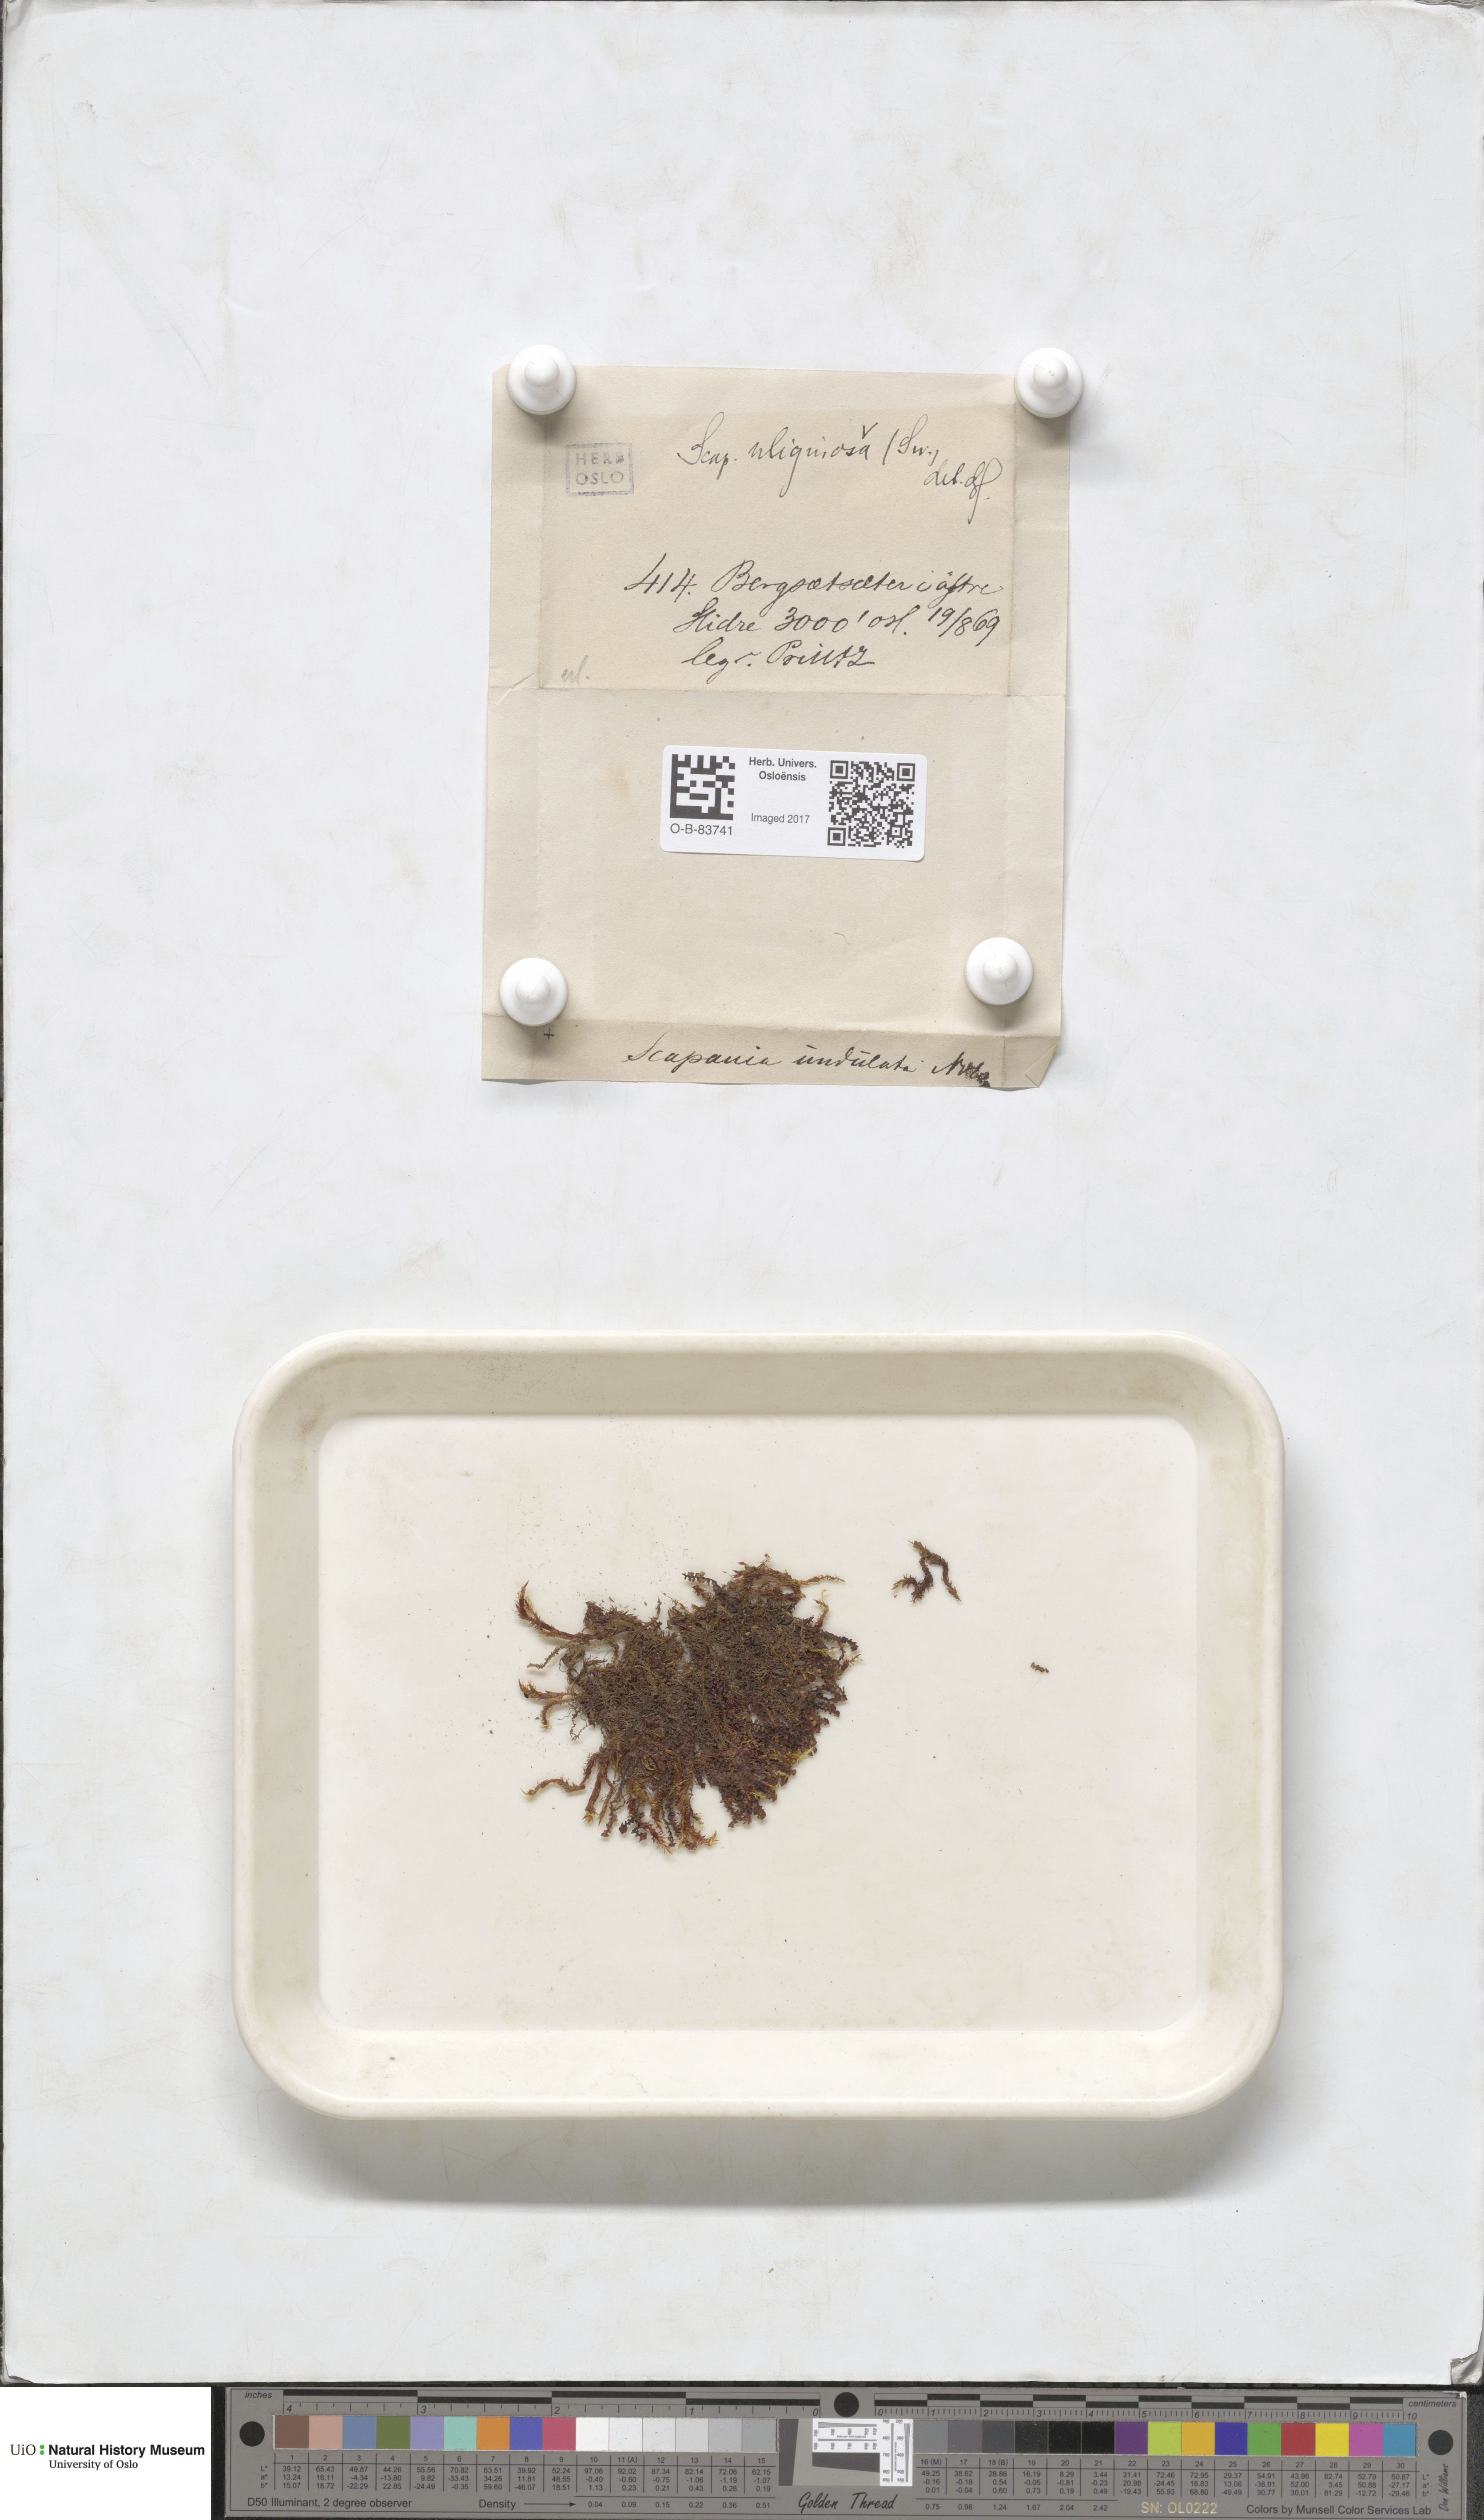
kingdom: Plantae
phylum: Marchantiophyta
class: Jungermanniopsida
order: Jungermanniales
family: Scapaniaceae
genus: Scapania
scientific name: Scapania uliginosa
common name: Marsh earwort
